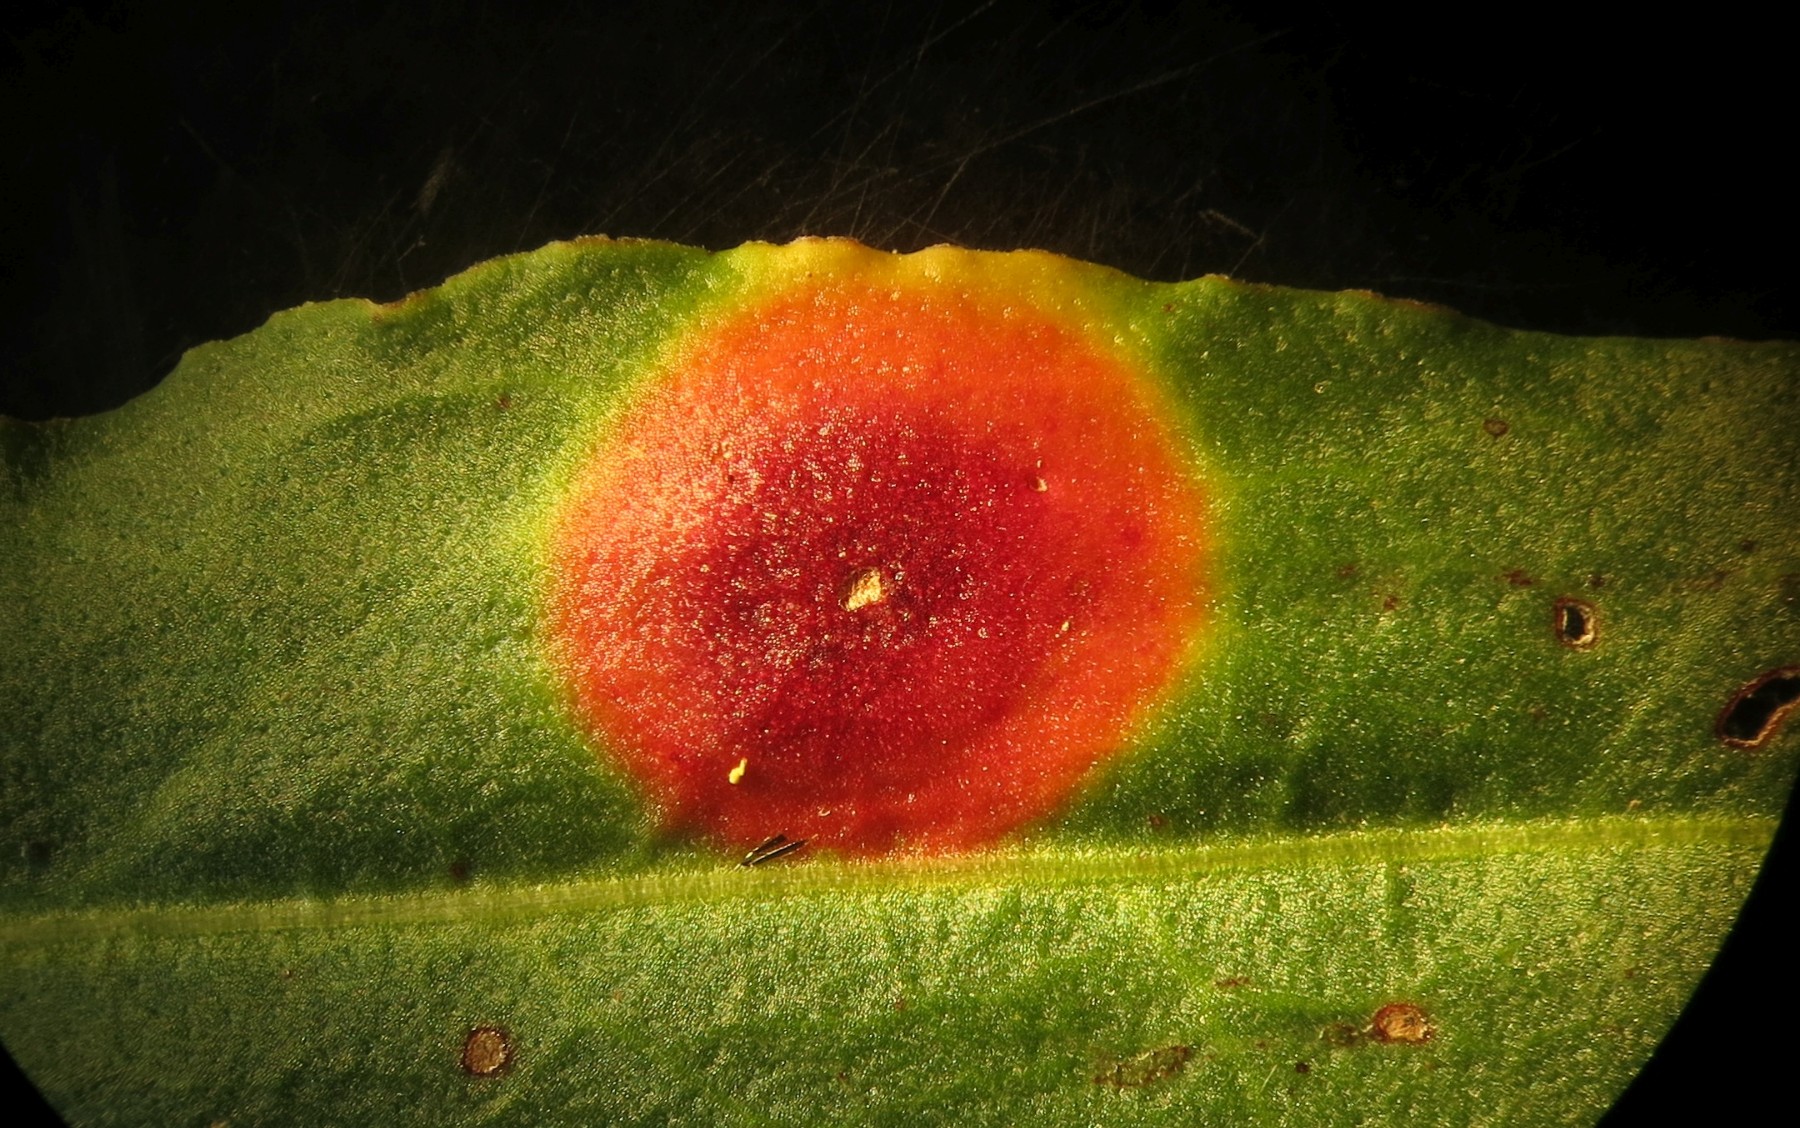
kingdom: Fungi
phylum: Basidiomycota
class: Pucciniomycetes
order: Pucciniales
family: Pucciniaceae
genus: Puccinia
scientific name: Puccinia phragmitis
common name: tagrør-tvecellerust
